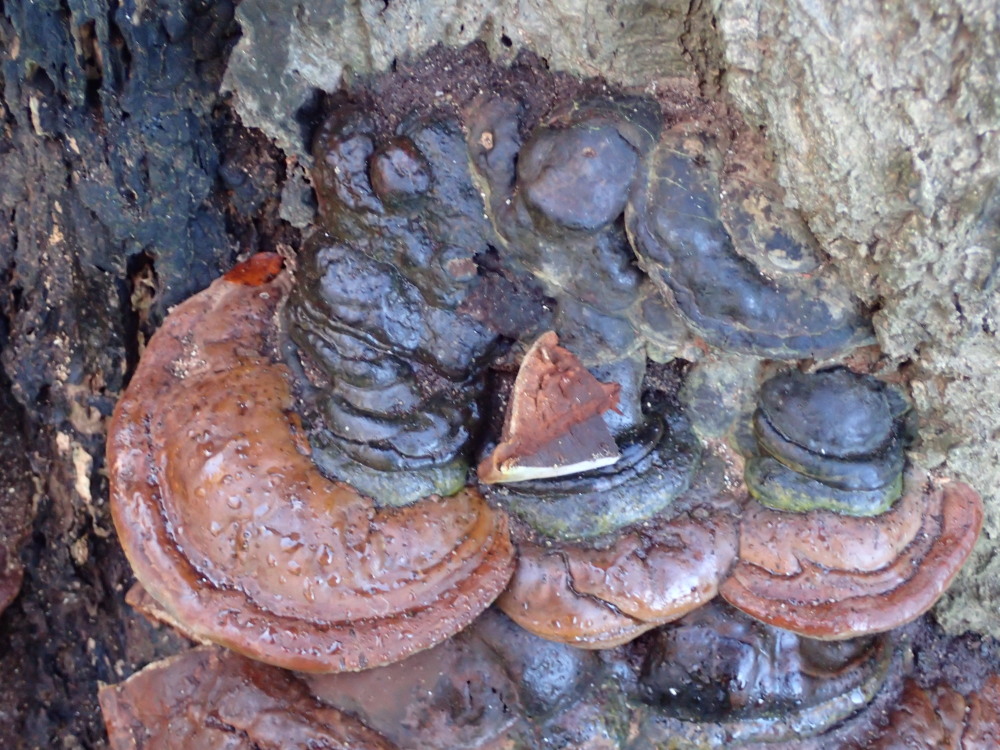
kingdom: Fungi
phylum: Basidiomycota
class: Agaricomycetes
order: Polyporales
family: Polyporaceae
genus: Ganoderma
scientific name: Ganoderma pfeifferi
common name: kobberrød lakporesvamp
